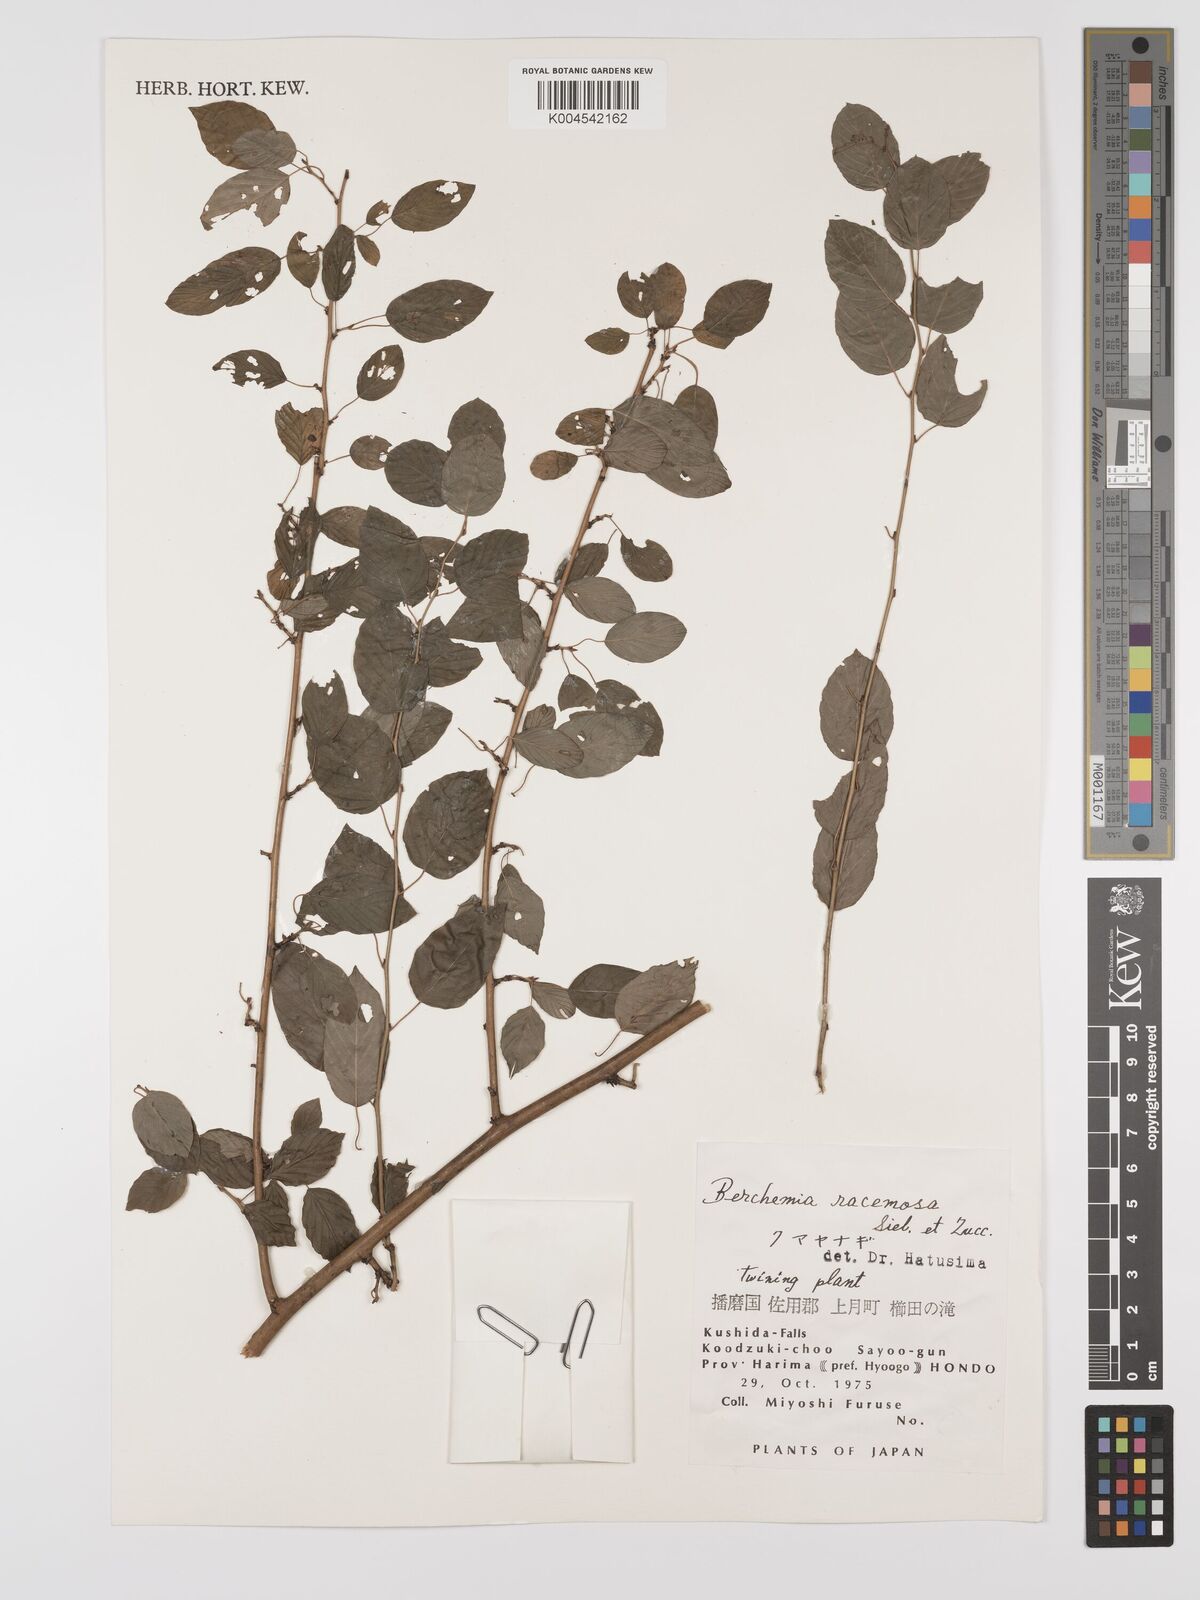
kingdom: Plantae
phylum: Tracheophyta
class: Magnoliopsida
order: Rosales
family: Rhamnaceae
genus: Berchemia
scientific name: Berchemia floribunda
